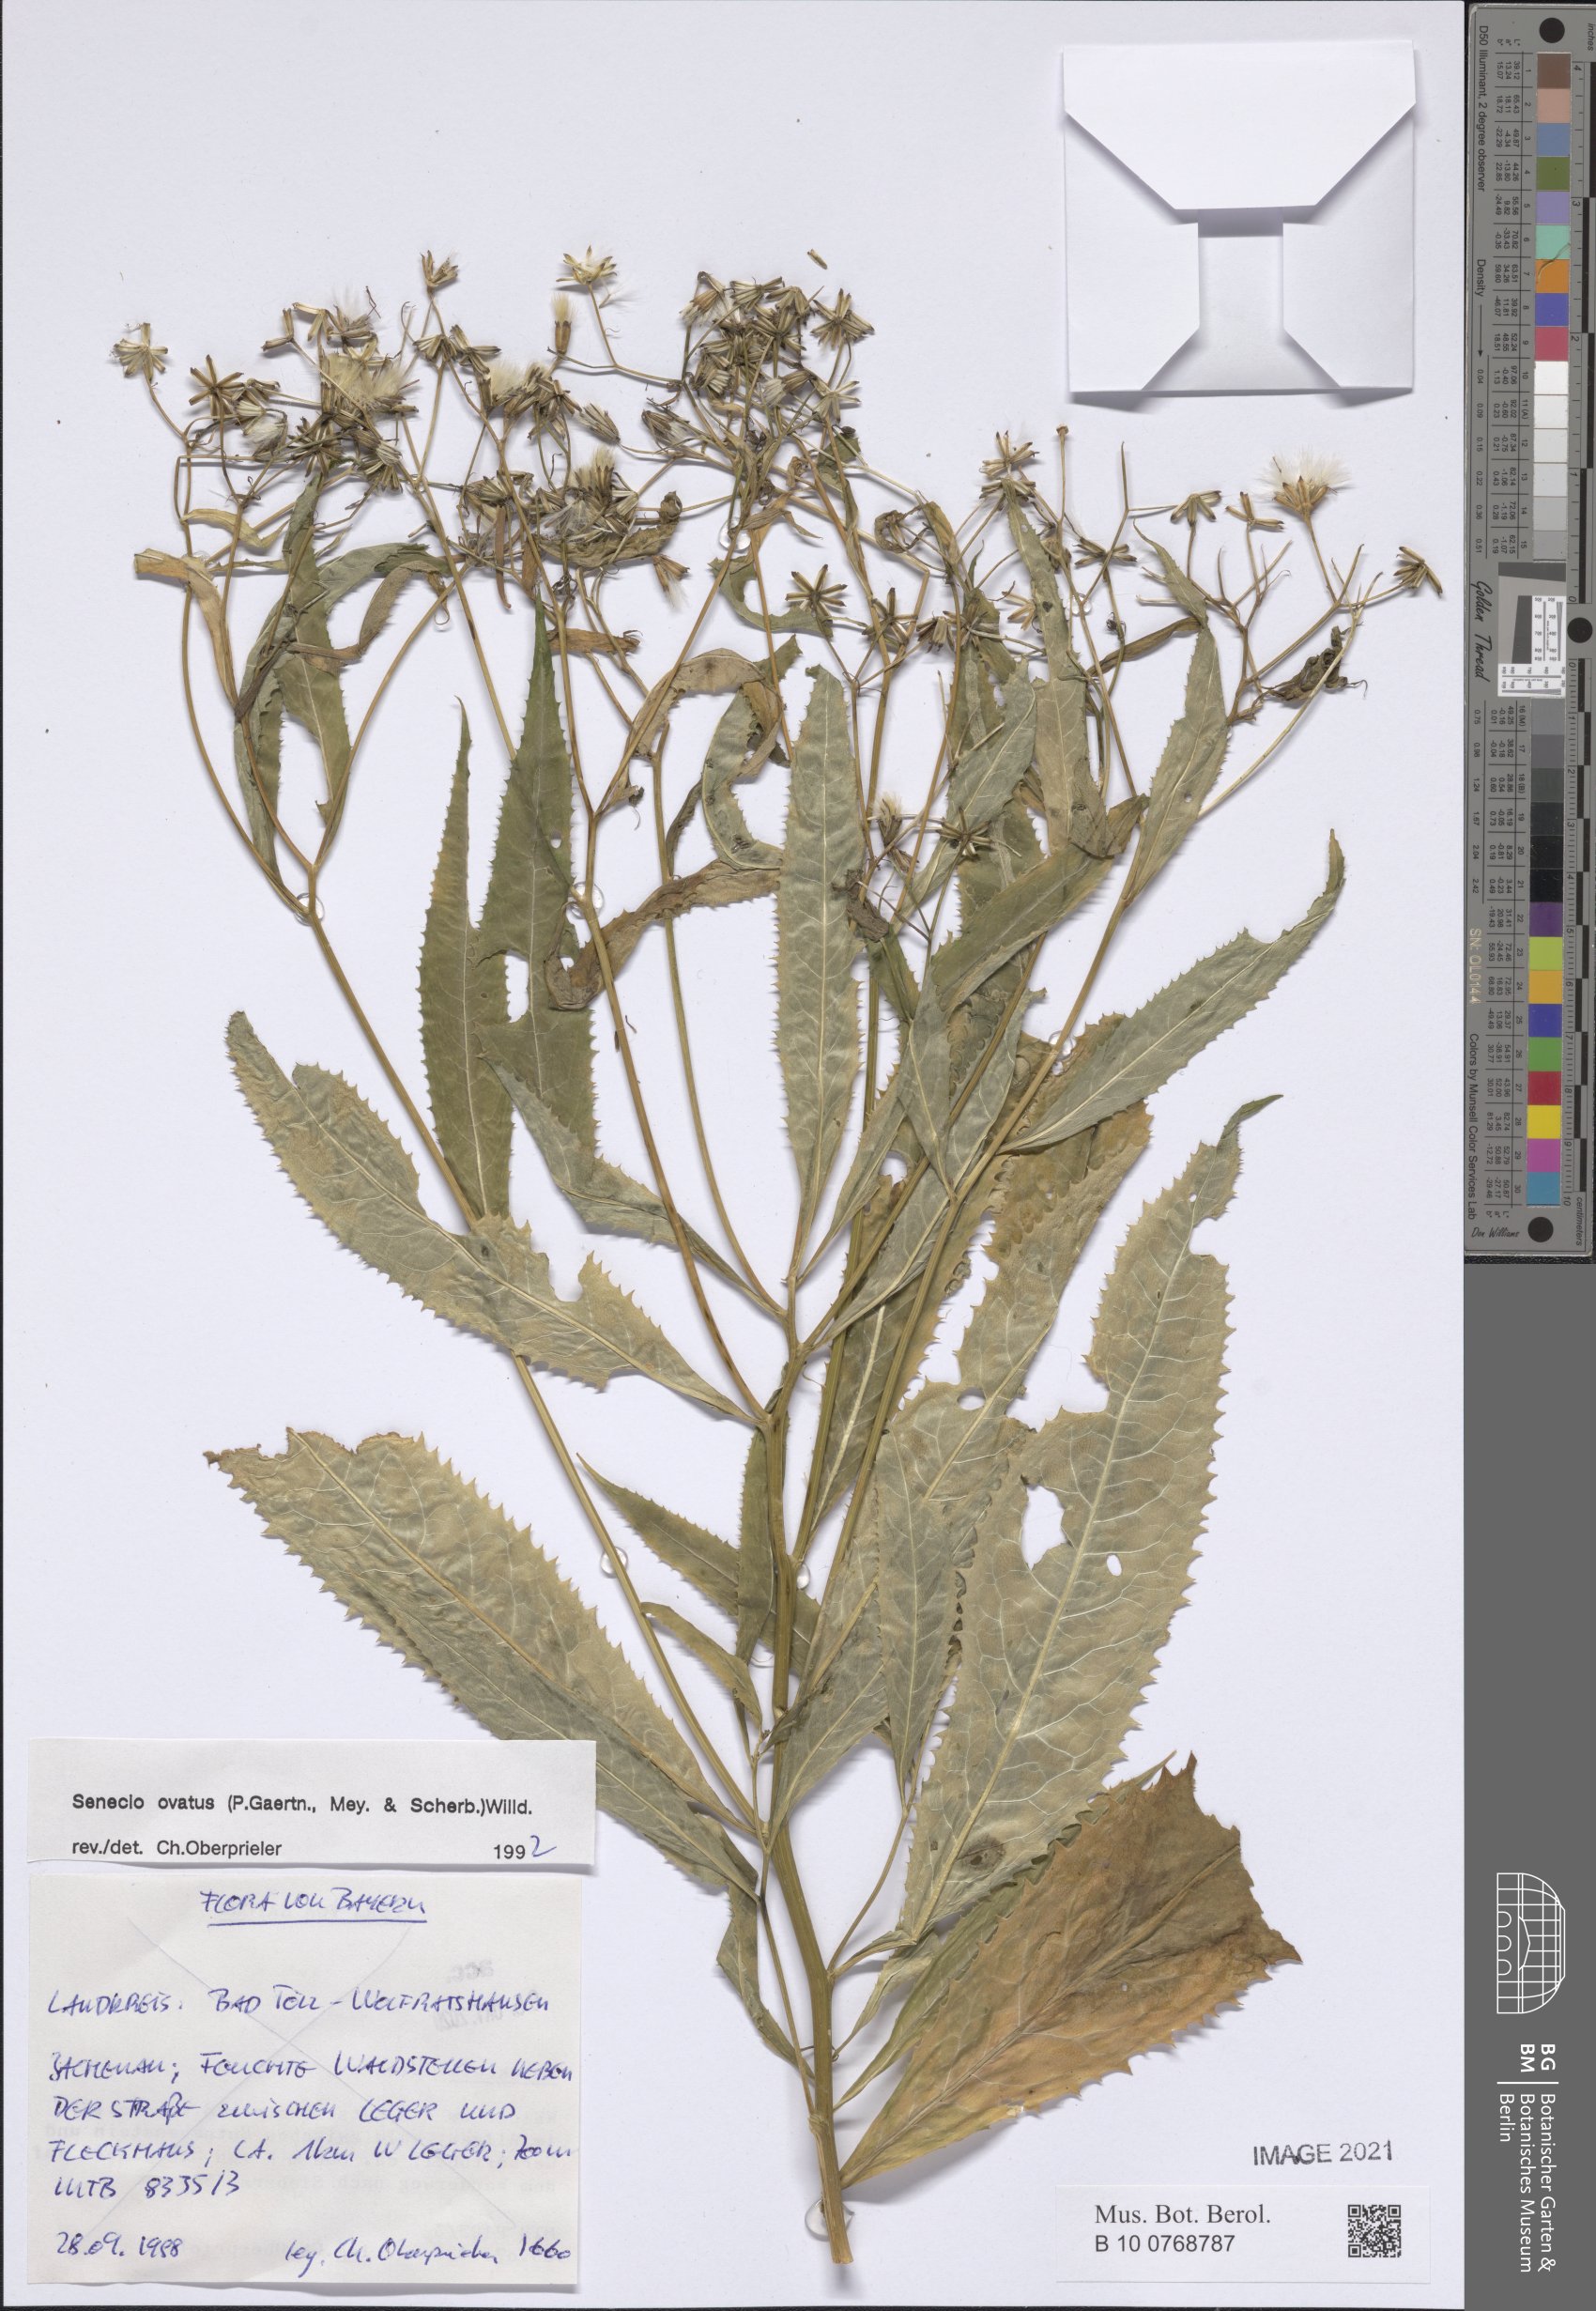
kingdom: Plantae
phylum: Tracheophyta
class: Magnoliopsida
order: Asterales
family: Asteraceae
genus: Senecio
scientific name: Senecio ovatus
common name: Wood ragwort
